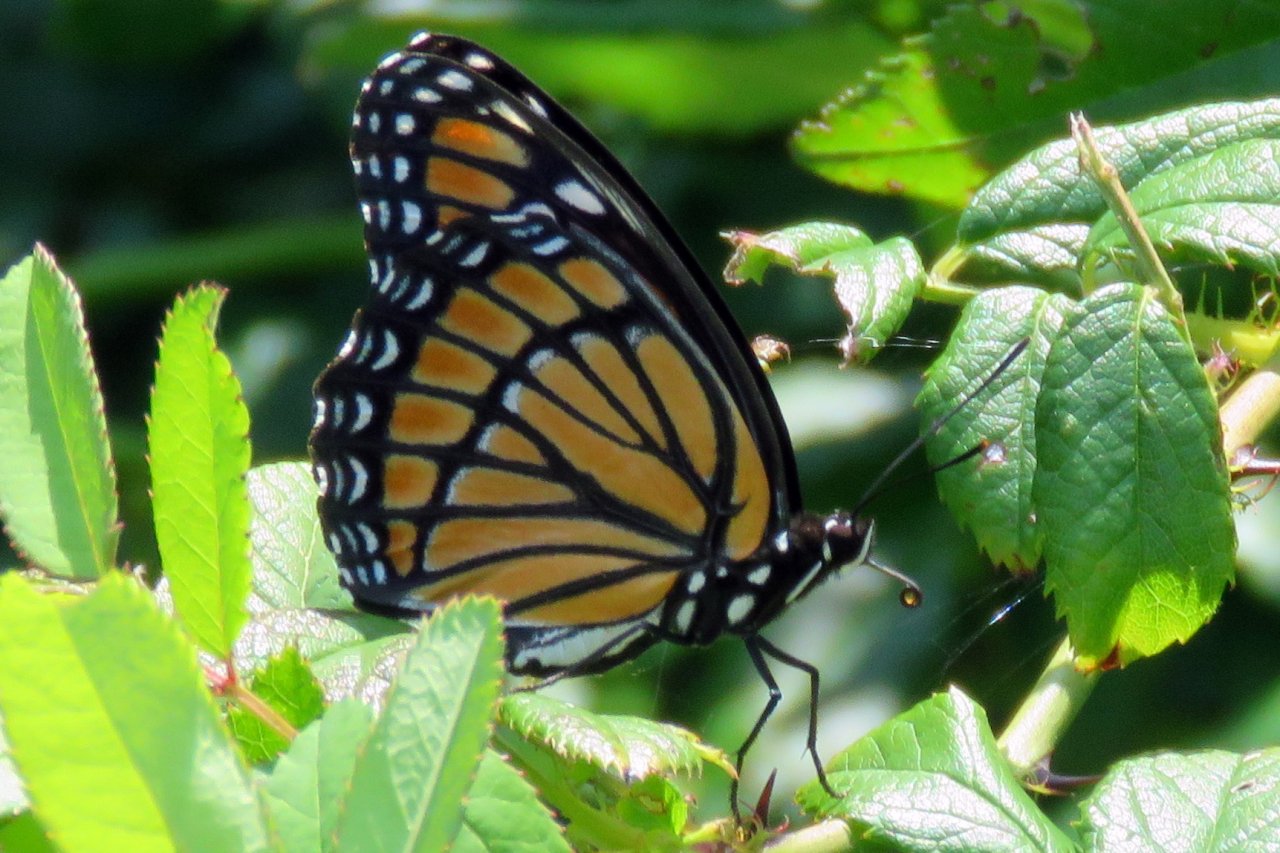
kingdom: Animalia
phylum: Arthropoda
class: Insecta
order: Lepidoptera
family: Nymphalidae
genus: Limenitis
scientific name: Limenitis archippus
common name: Viceroy
